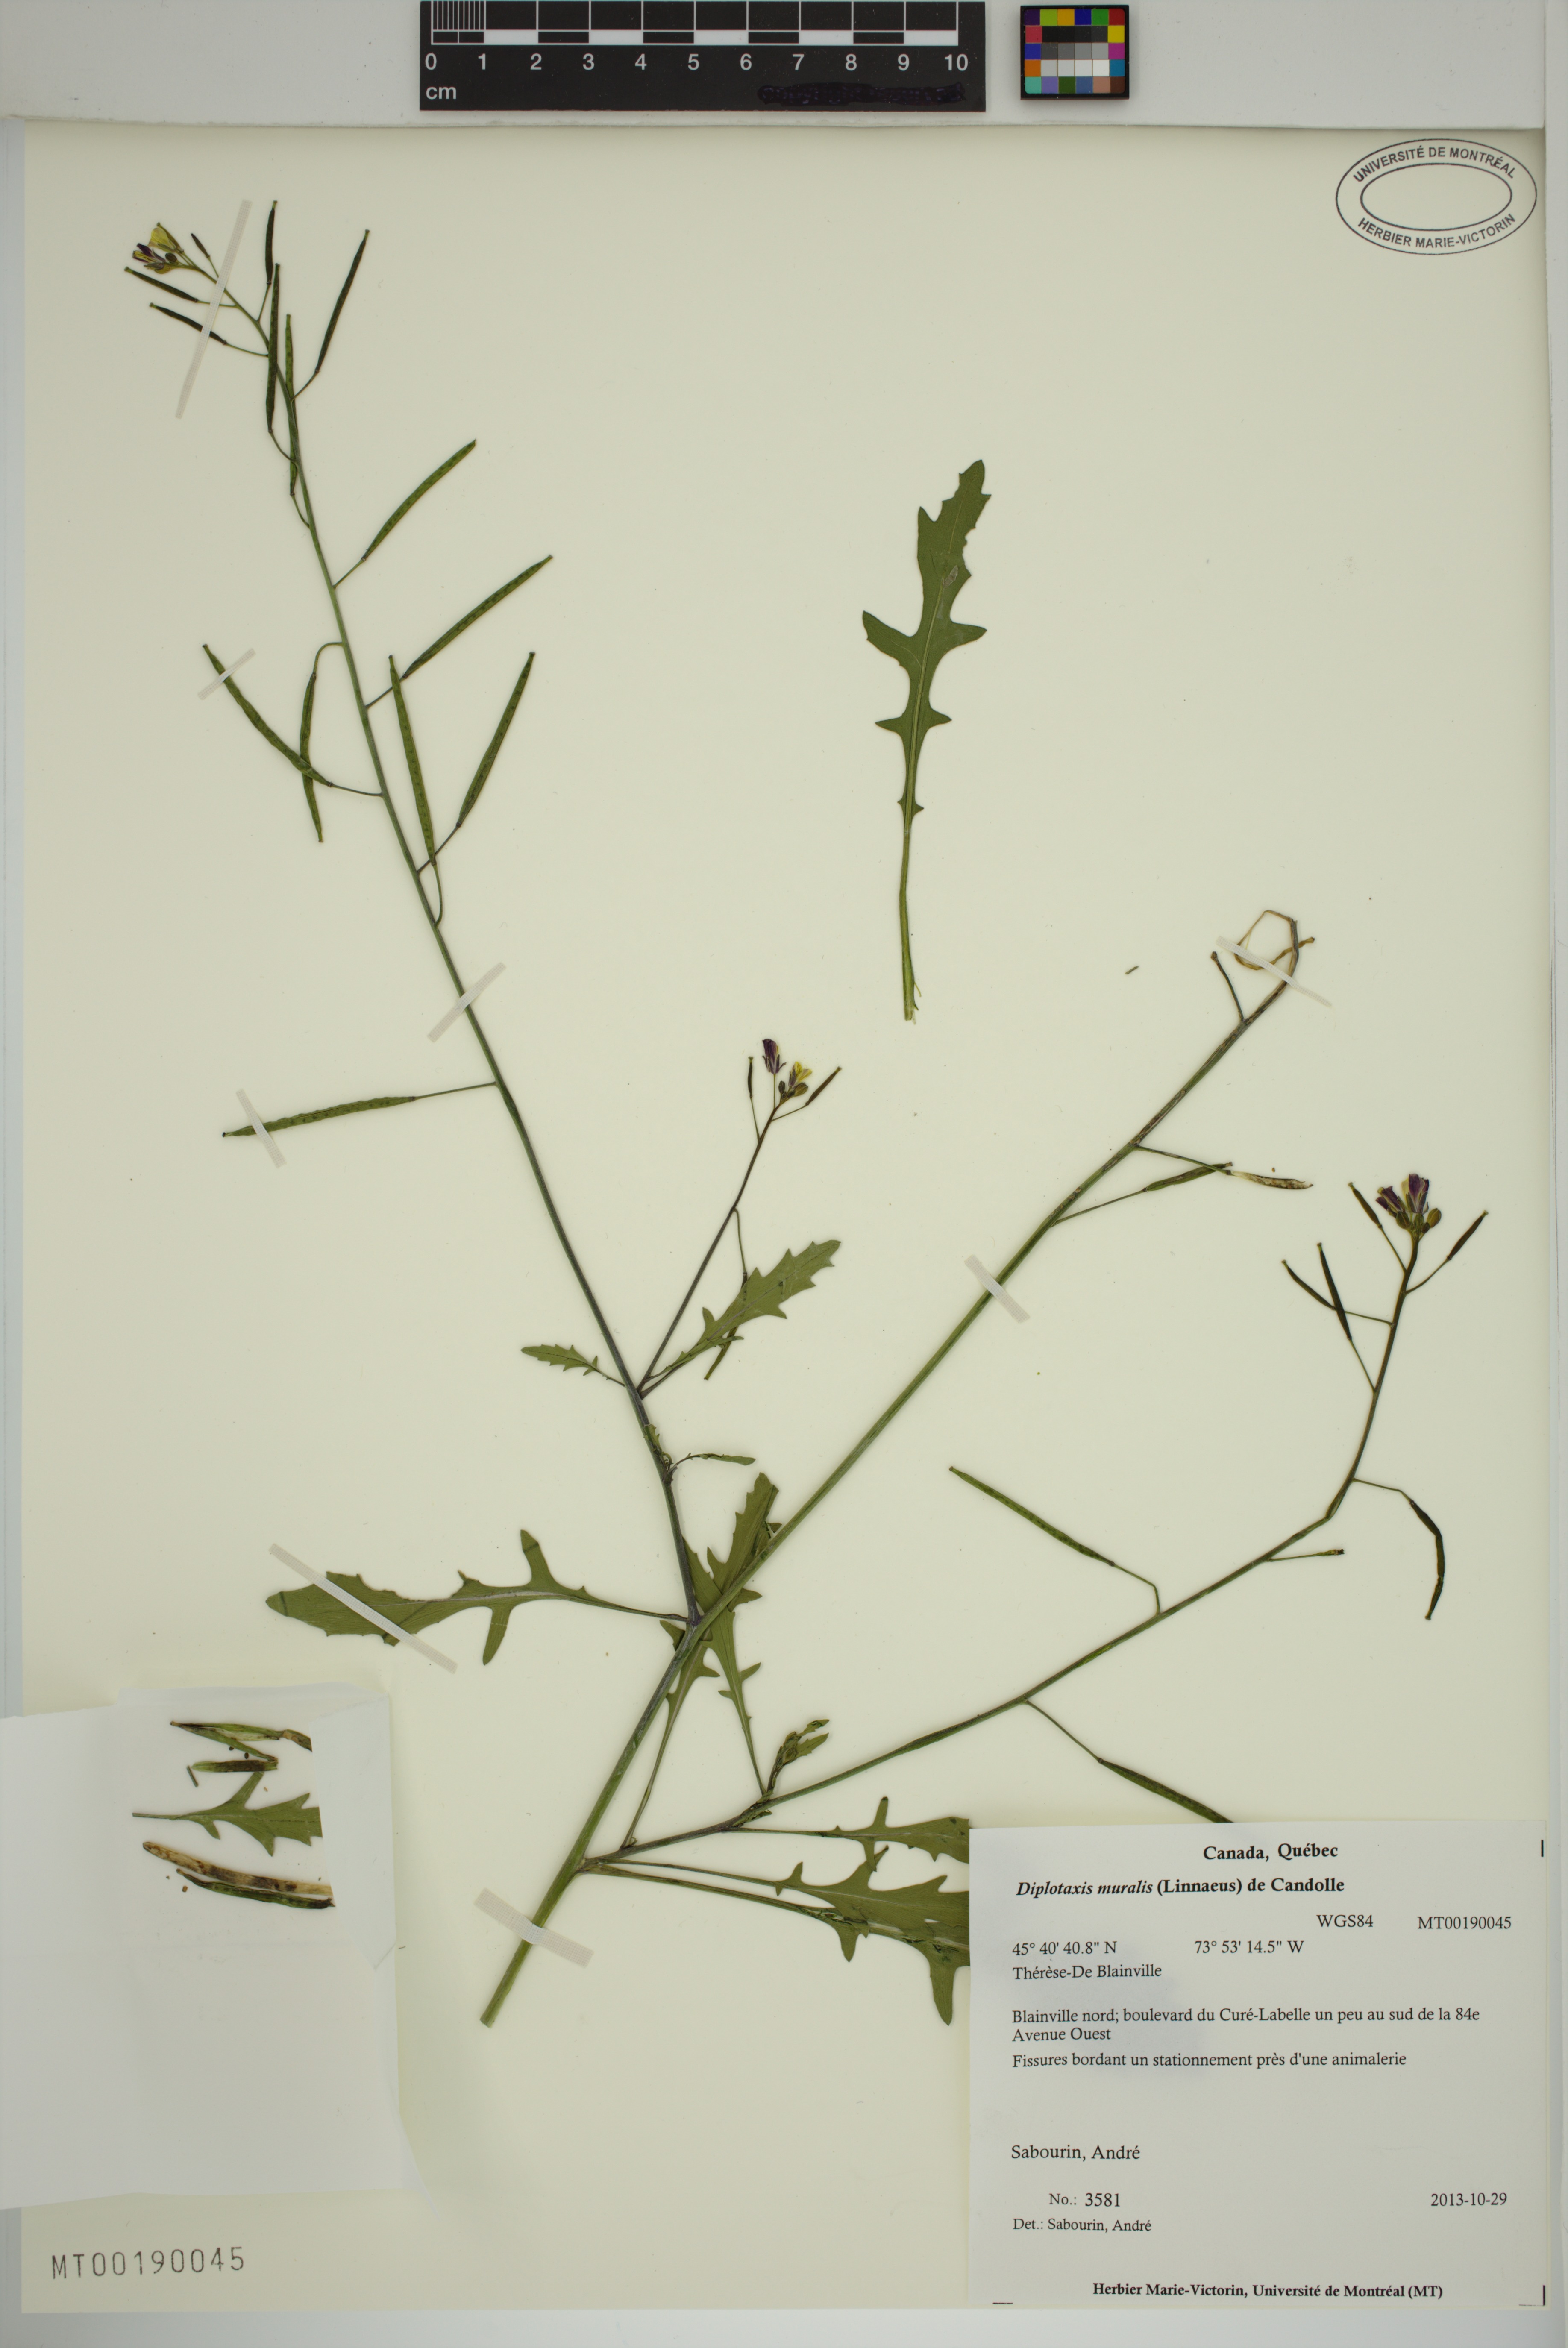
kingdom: Plantae
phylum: Tracheophyta
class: Magnoliopsida
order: Brassicales
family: Brassicaceae
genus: Diplotaxis
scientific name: Diplotaxis muralis
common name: Annual wall-rocket
